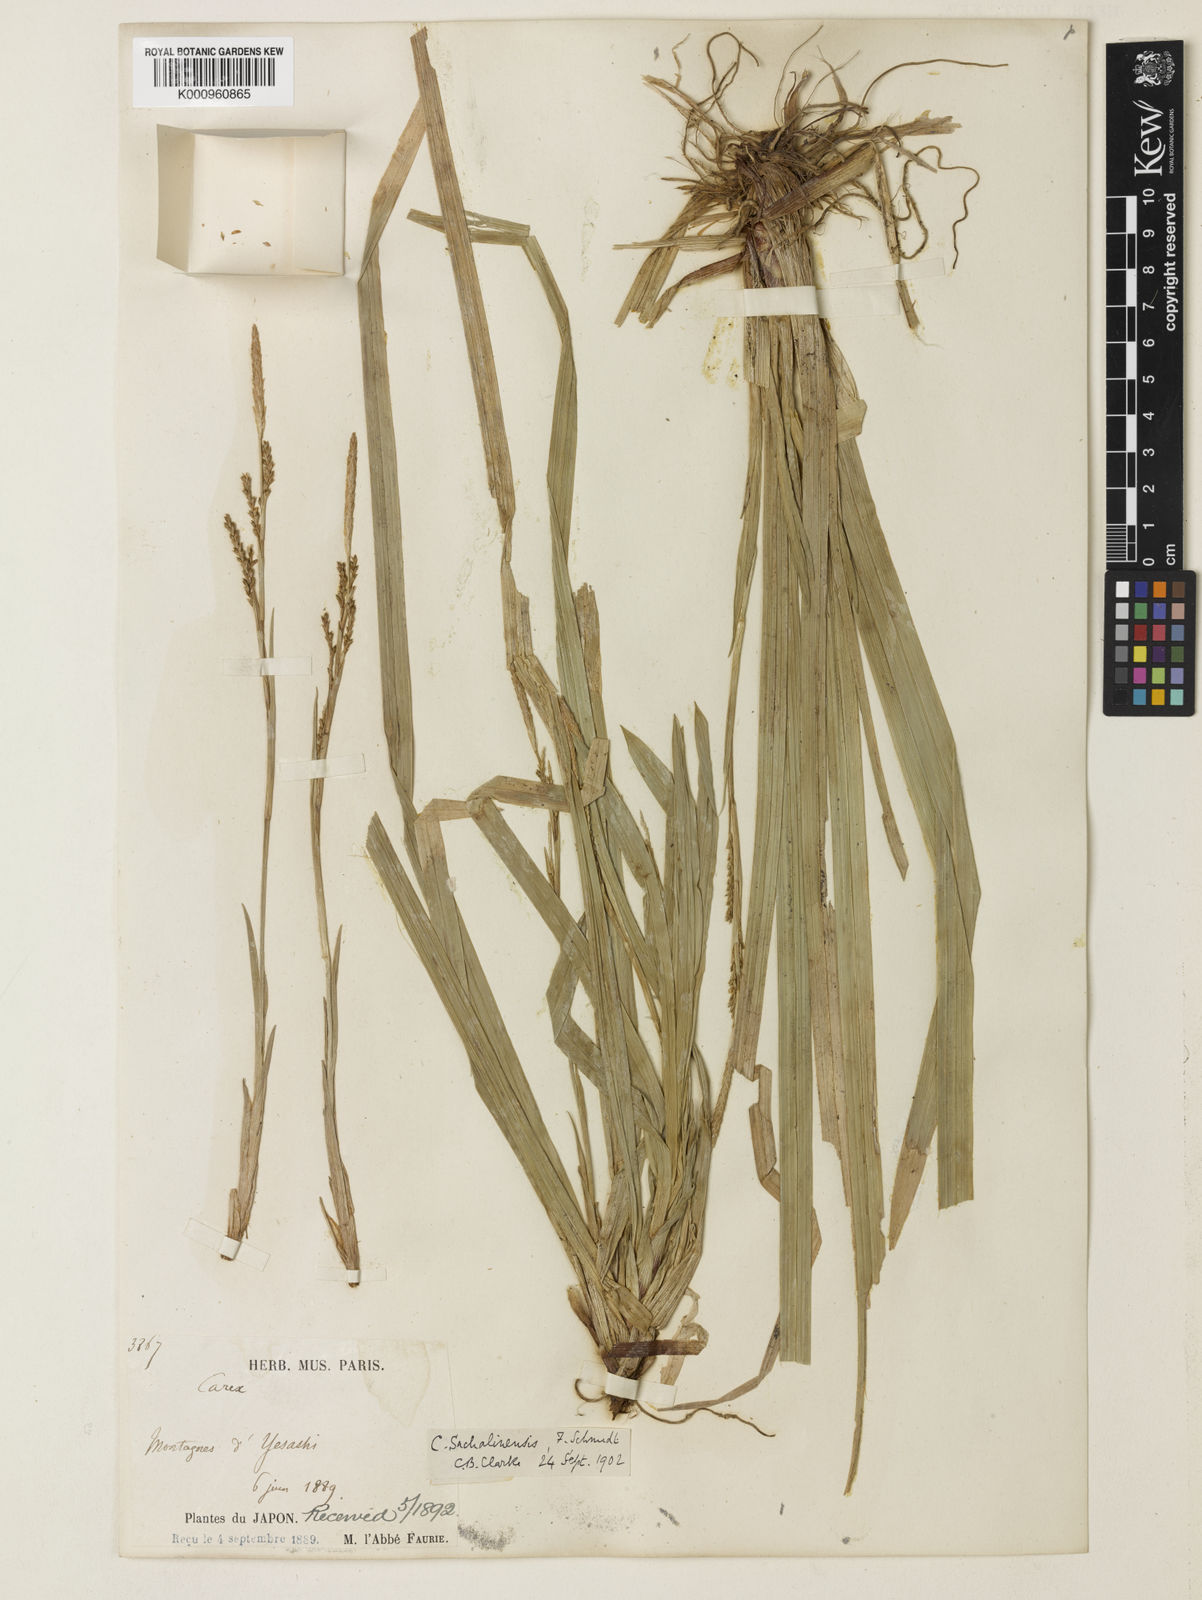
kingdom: Plantae
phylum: Tracheophyta
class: Liliopsida
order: Poales
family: Cyperaceae
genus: Carex
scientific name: Carex foliosissima
